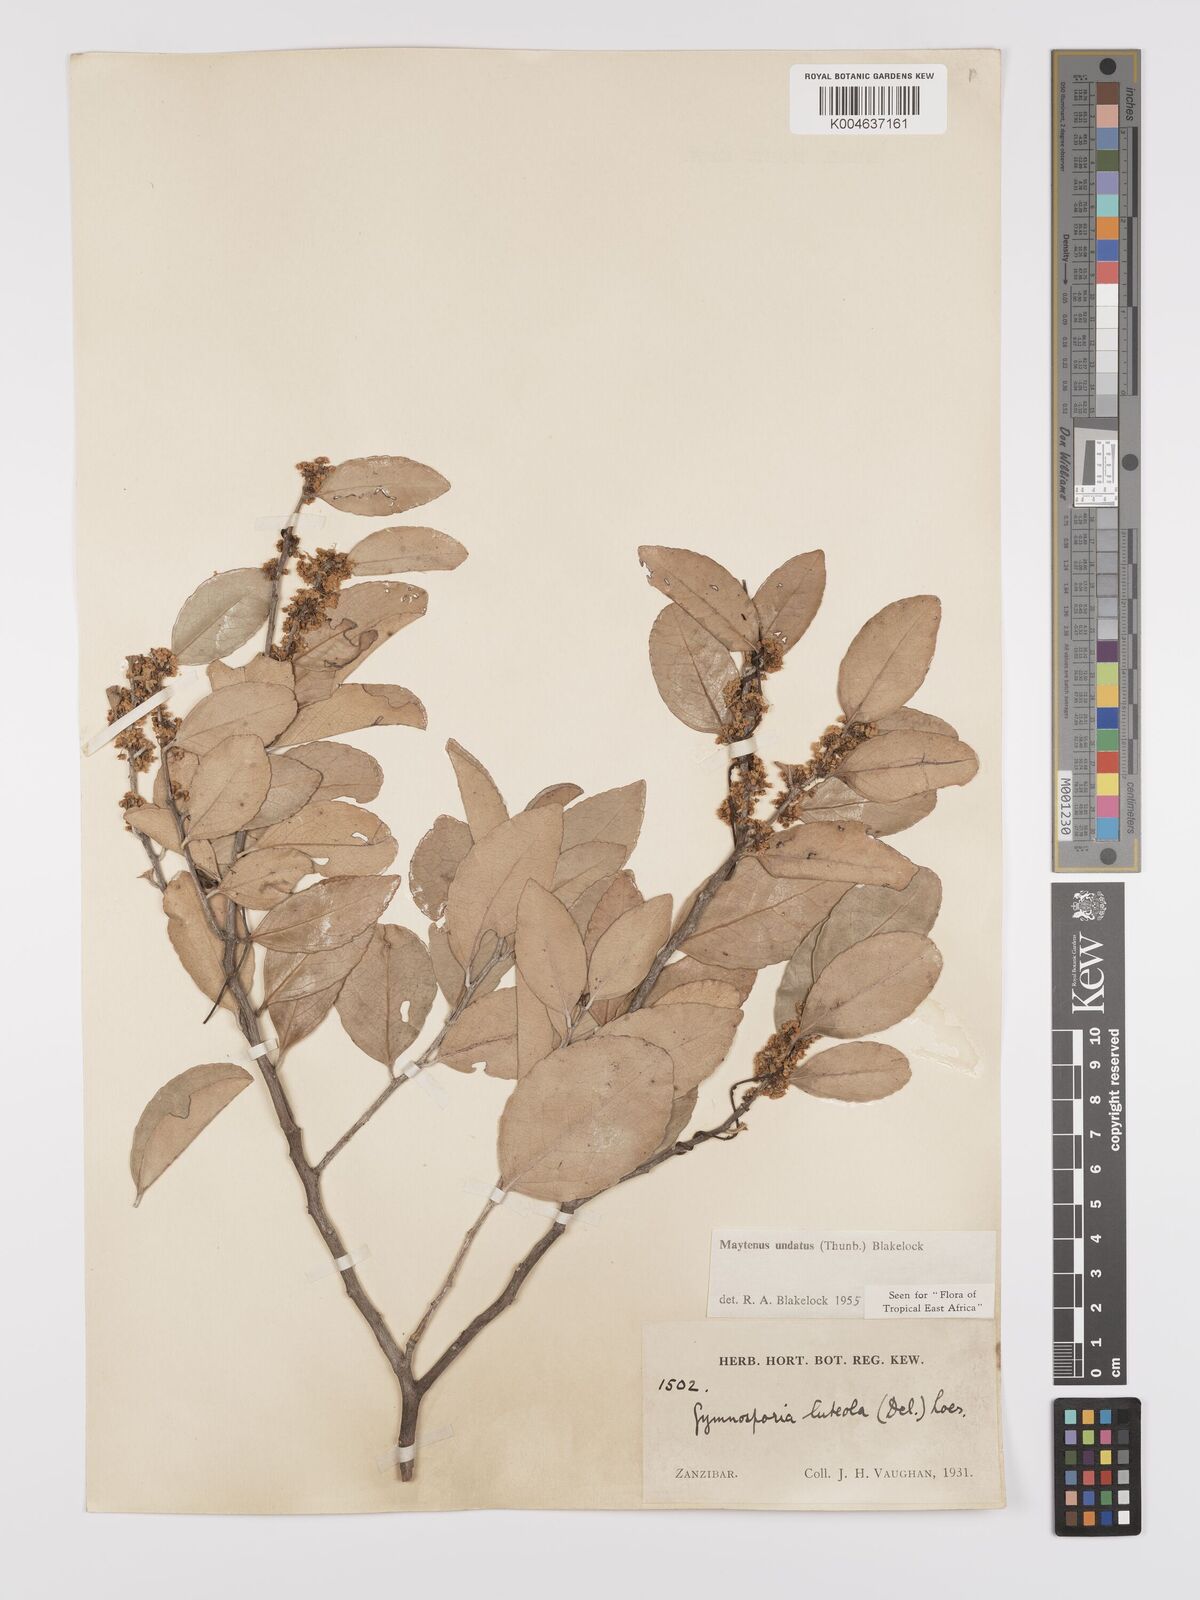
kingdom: Plantae
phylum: Tracheophyta
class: Magnoliopsida
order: Celastrales
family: Celastraceae
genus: Gymnosporia
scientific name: Gymnosporia undata
